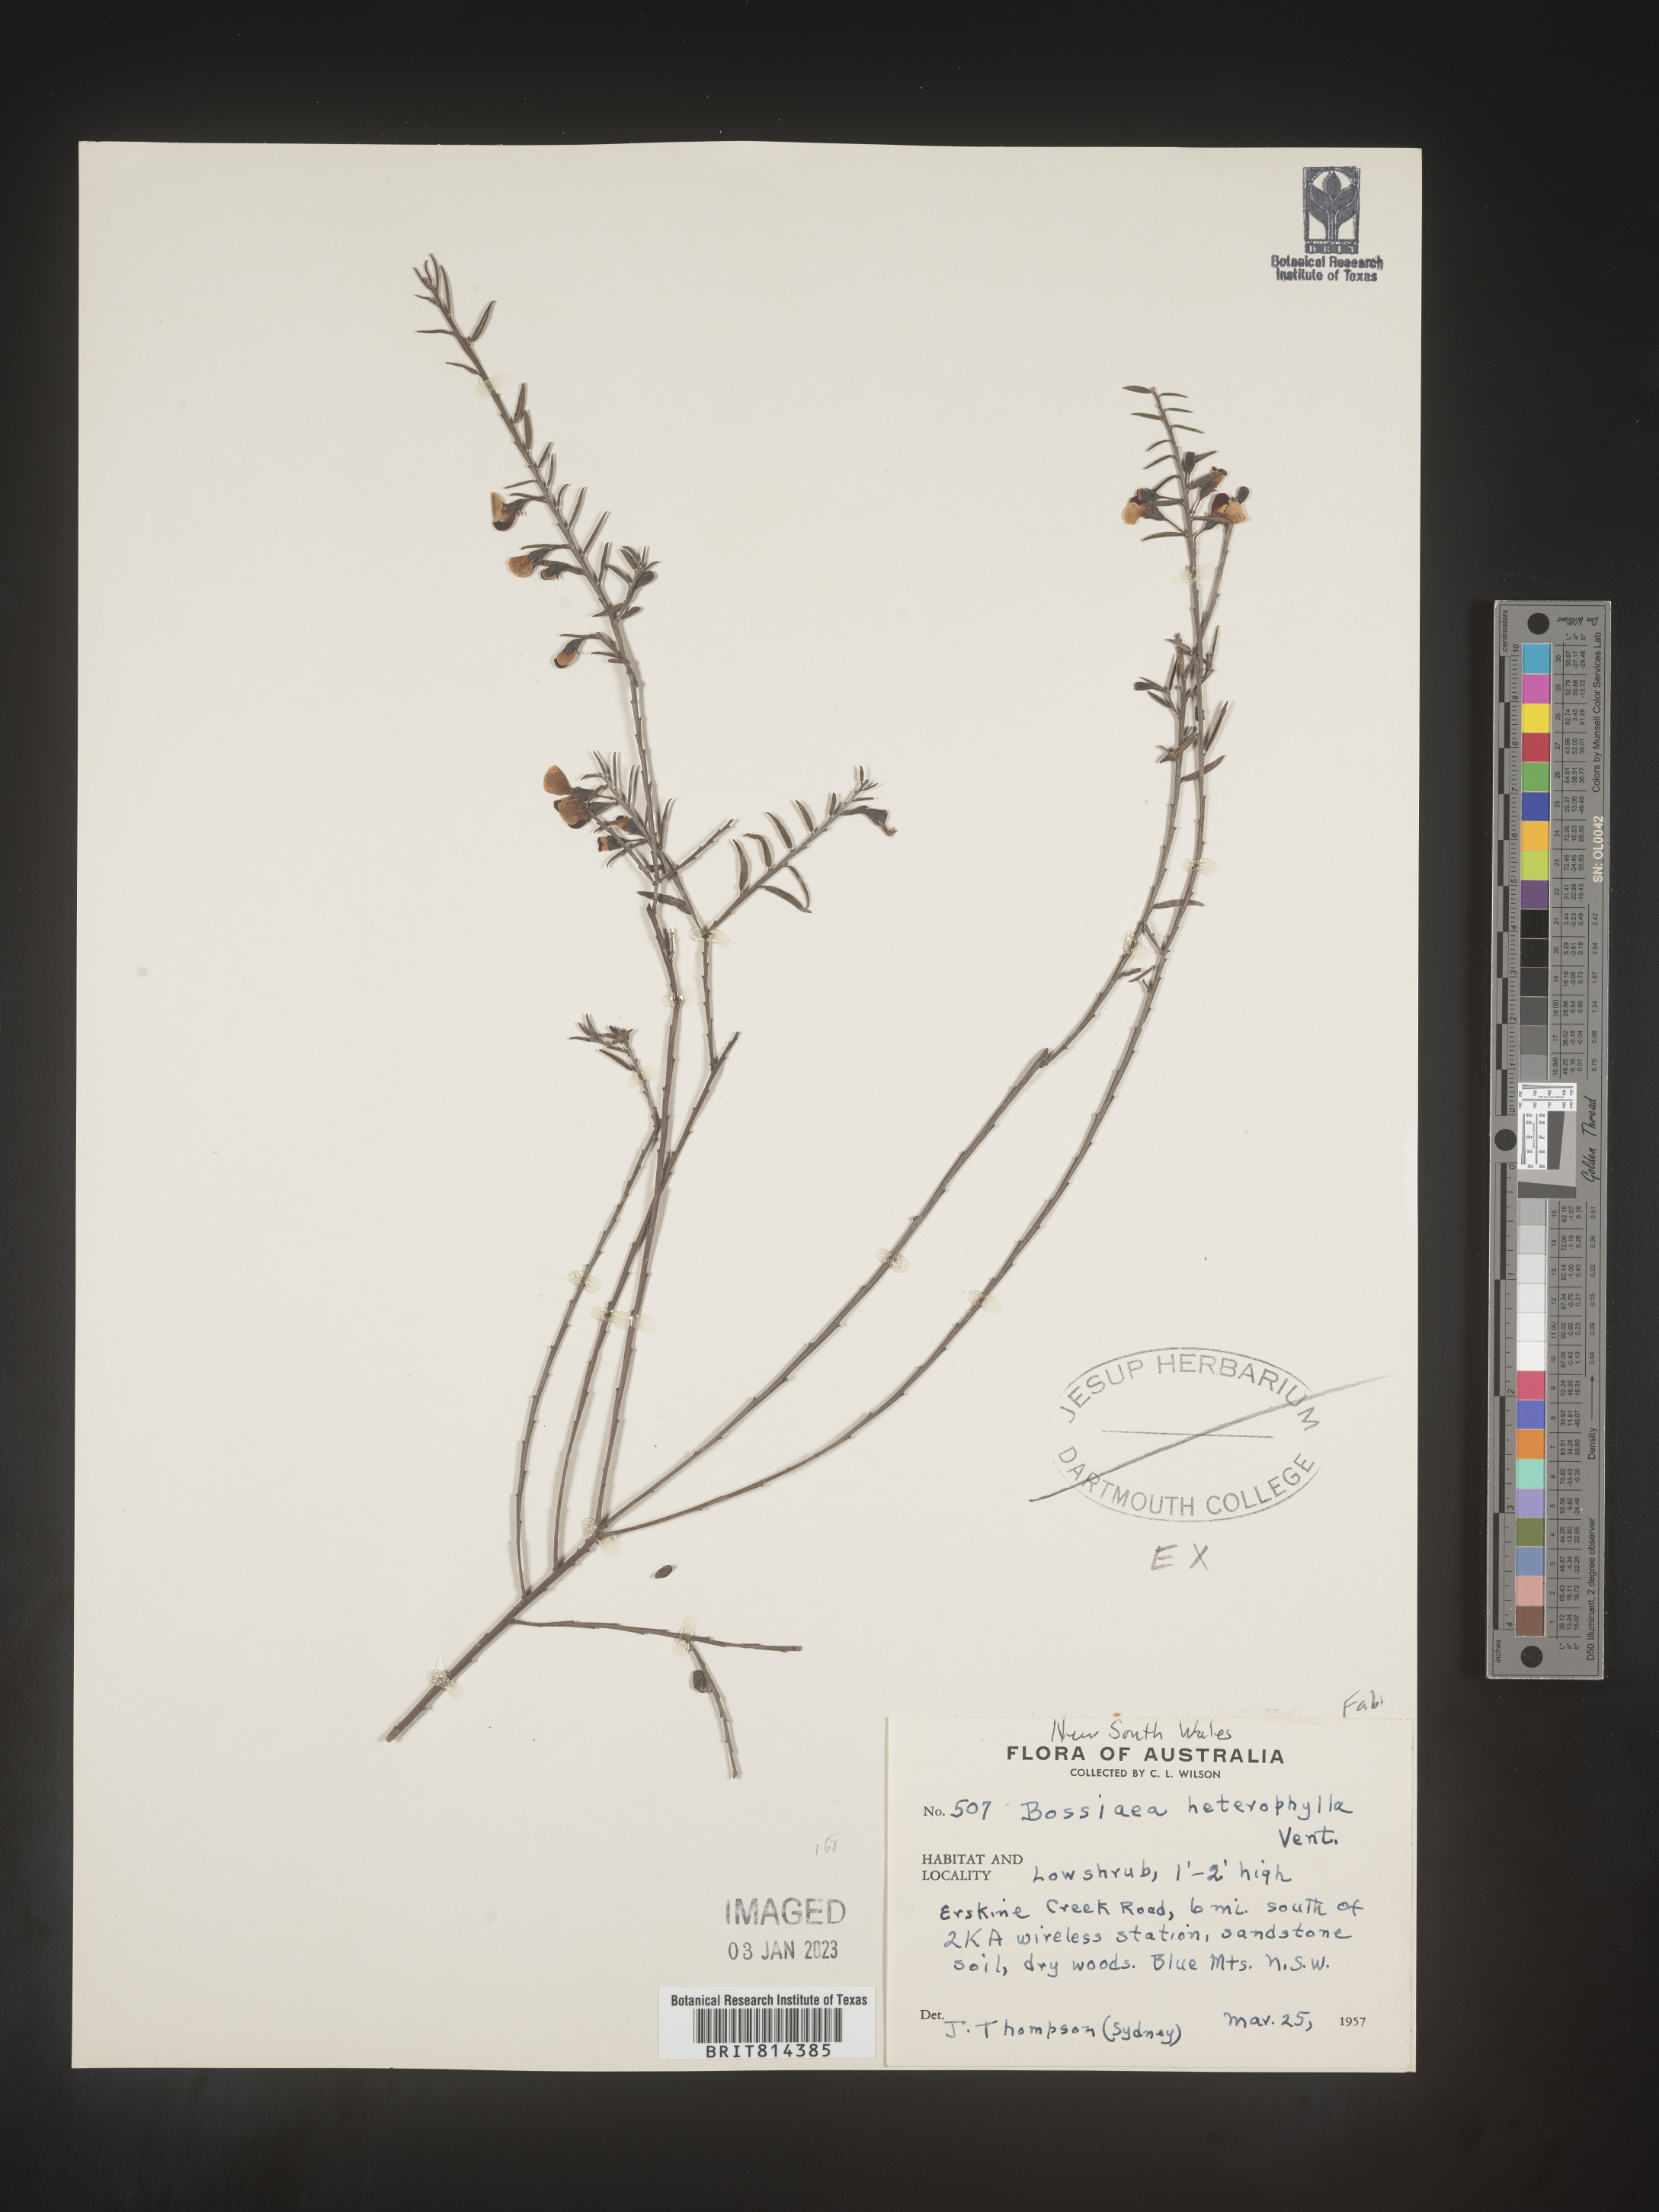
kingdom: Plantae
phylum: Tracheophyta
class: Magnoliopsida
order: Fabales
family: Fabaceae
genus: Bossiaea
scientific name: Bossiaea
